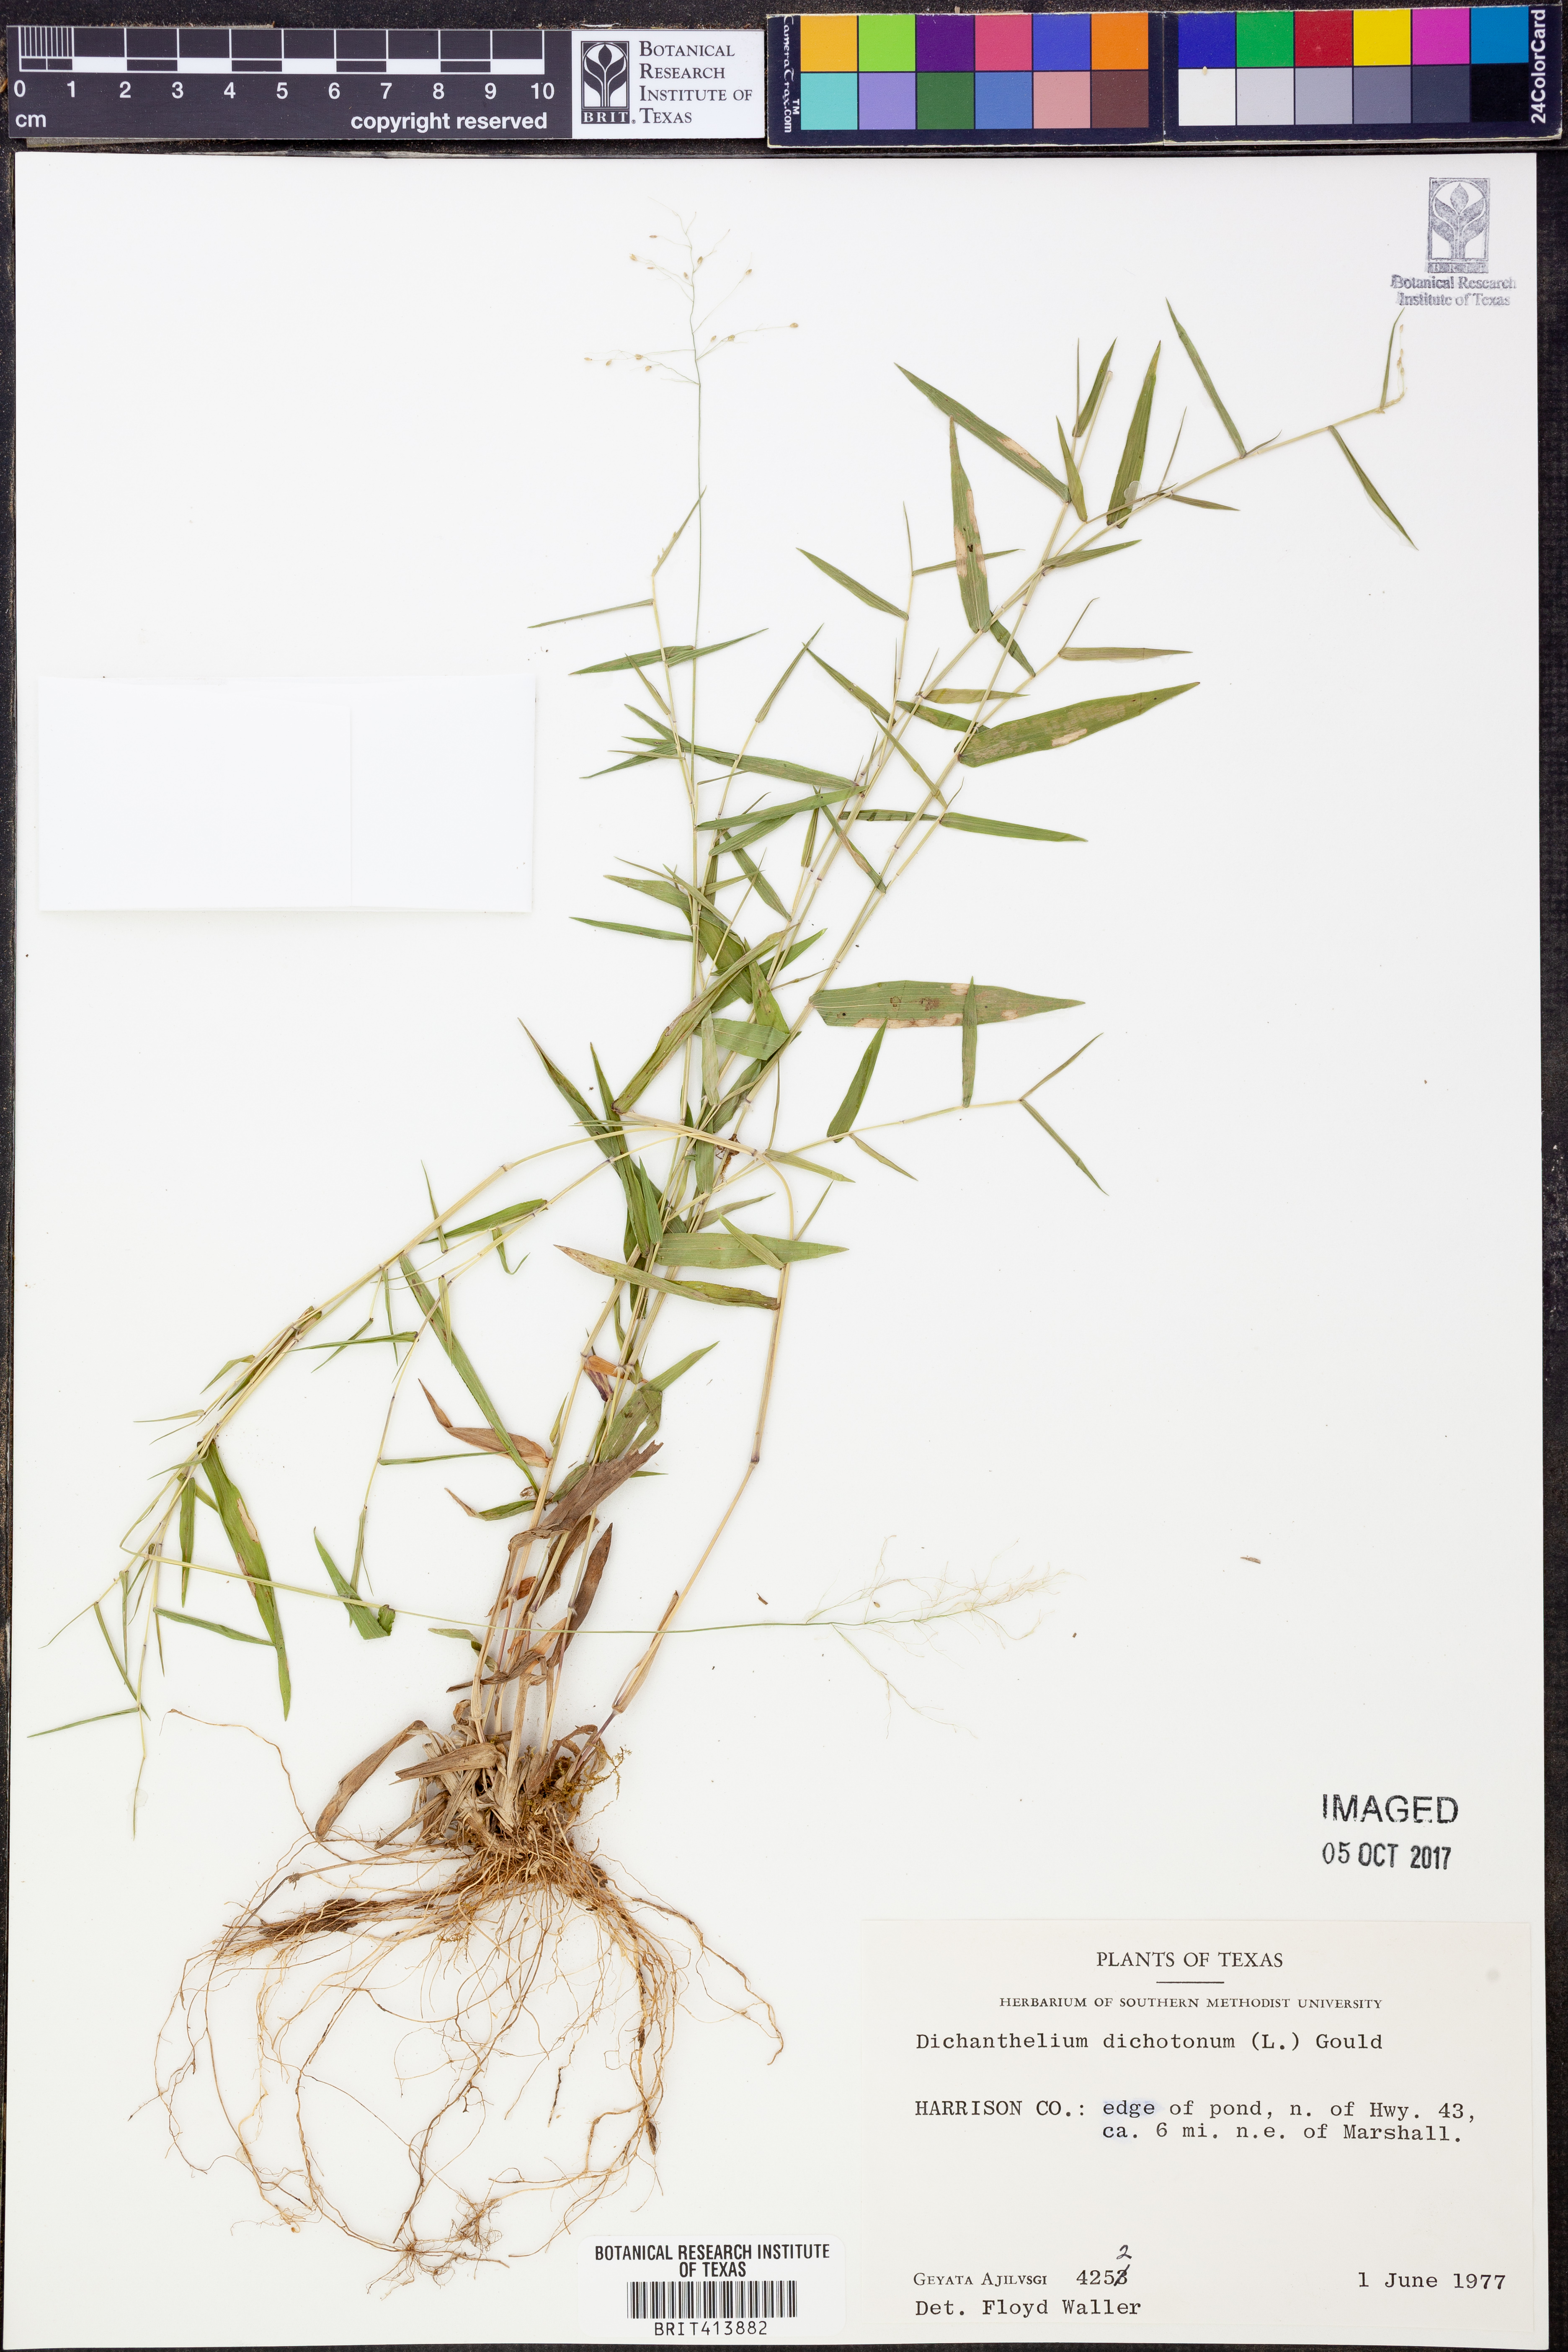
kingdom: Plantae
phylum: Tracheophyta
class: Liliopsida
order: Poales
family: Poaceae
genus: Dichanthelium
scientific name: Dichanthelium dichotomum
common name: Cypress panicgrass
